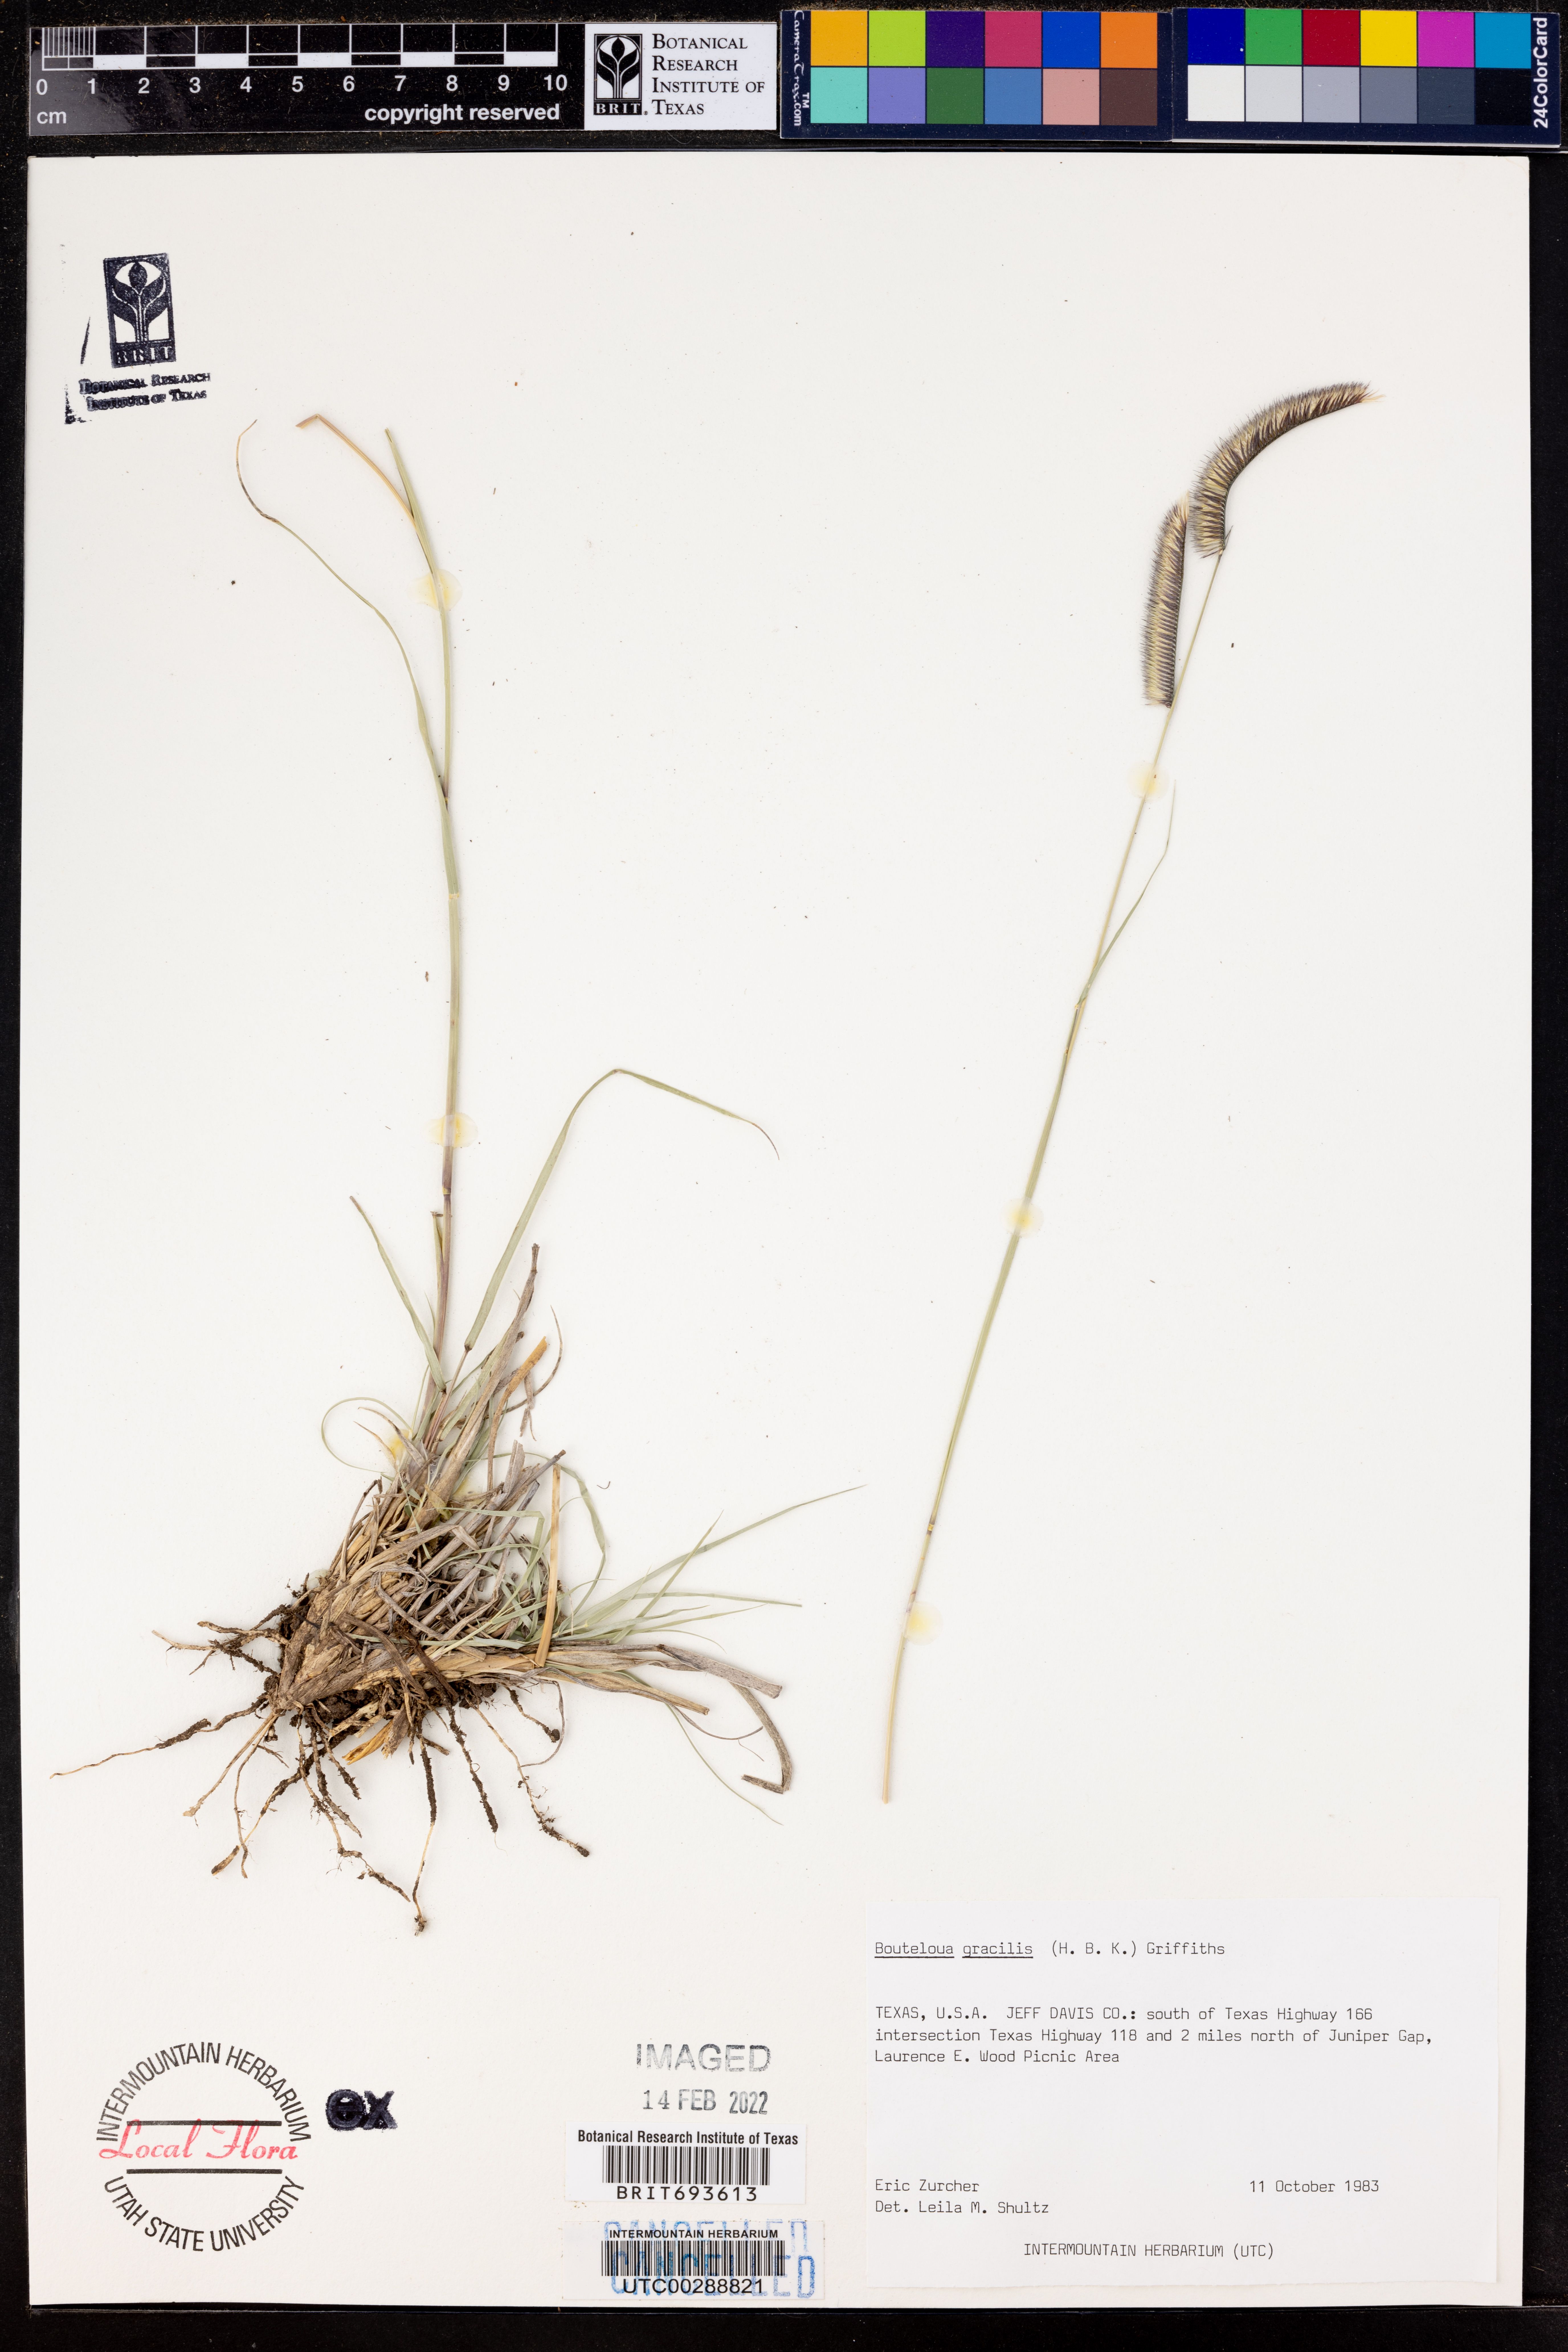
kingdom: Plantae
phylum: Tracheophyta
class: Liliopsida
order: Poales
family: Poaceae
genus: Bouteloua
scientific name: Bouteloua gracilis
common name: Blue grama
